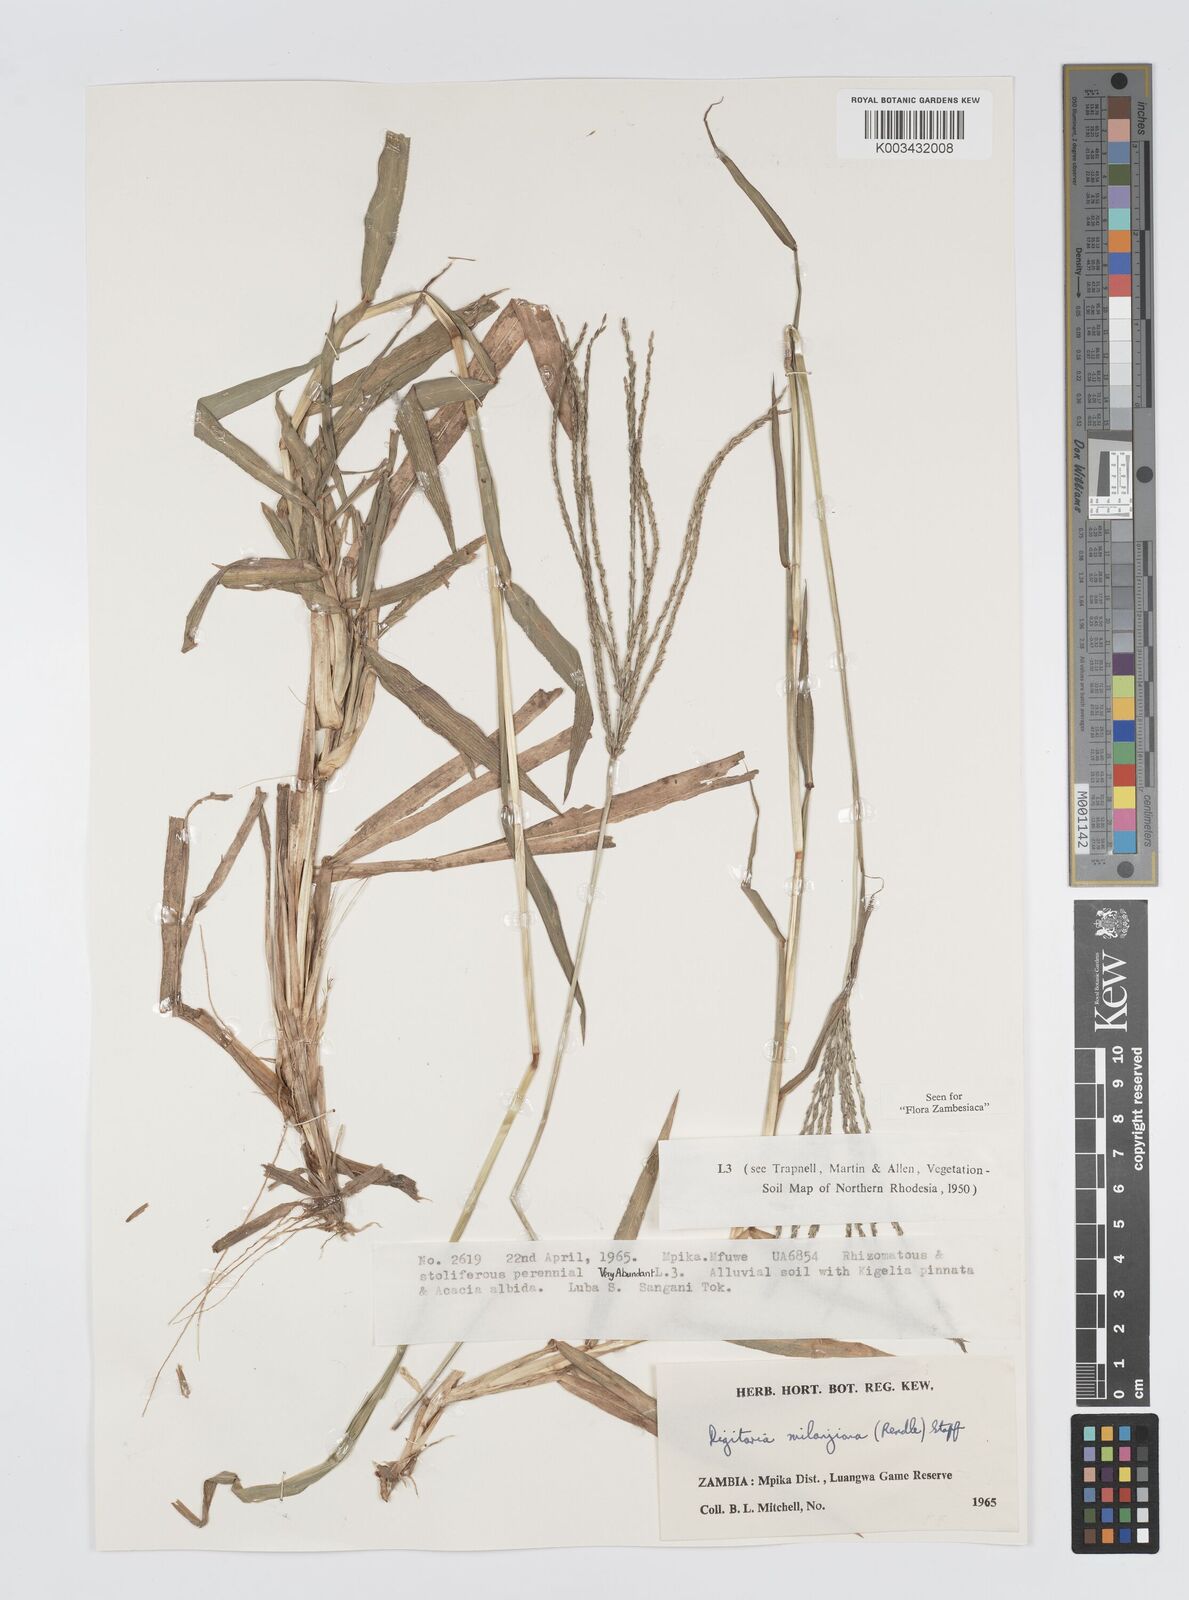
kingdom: Plantae
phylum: Tracheophyta
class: Liliopsida
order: Poales
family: Poaceae
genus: Digitaria
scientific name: Digitaria milanjiana
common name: Madagascar crabgrass
